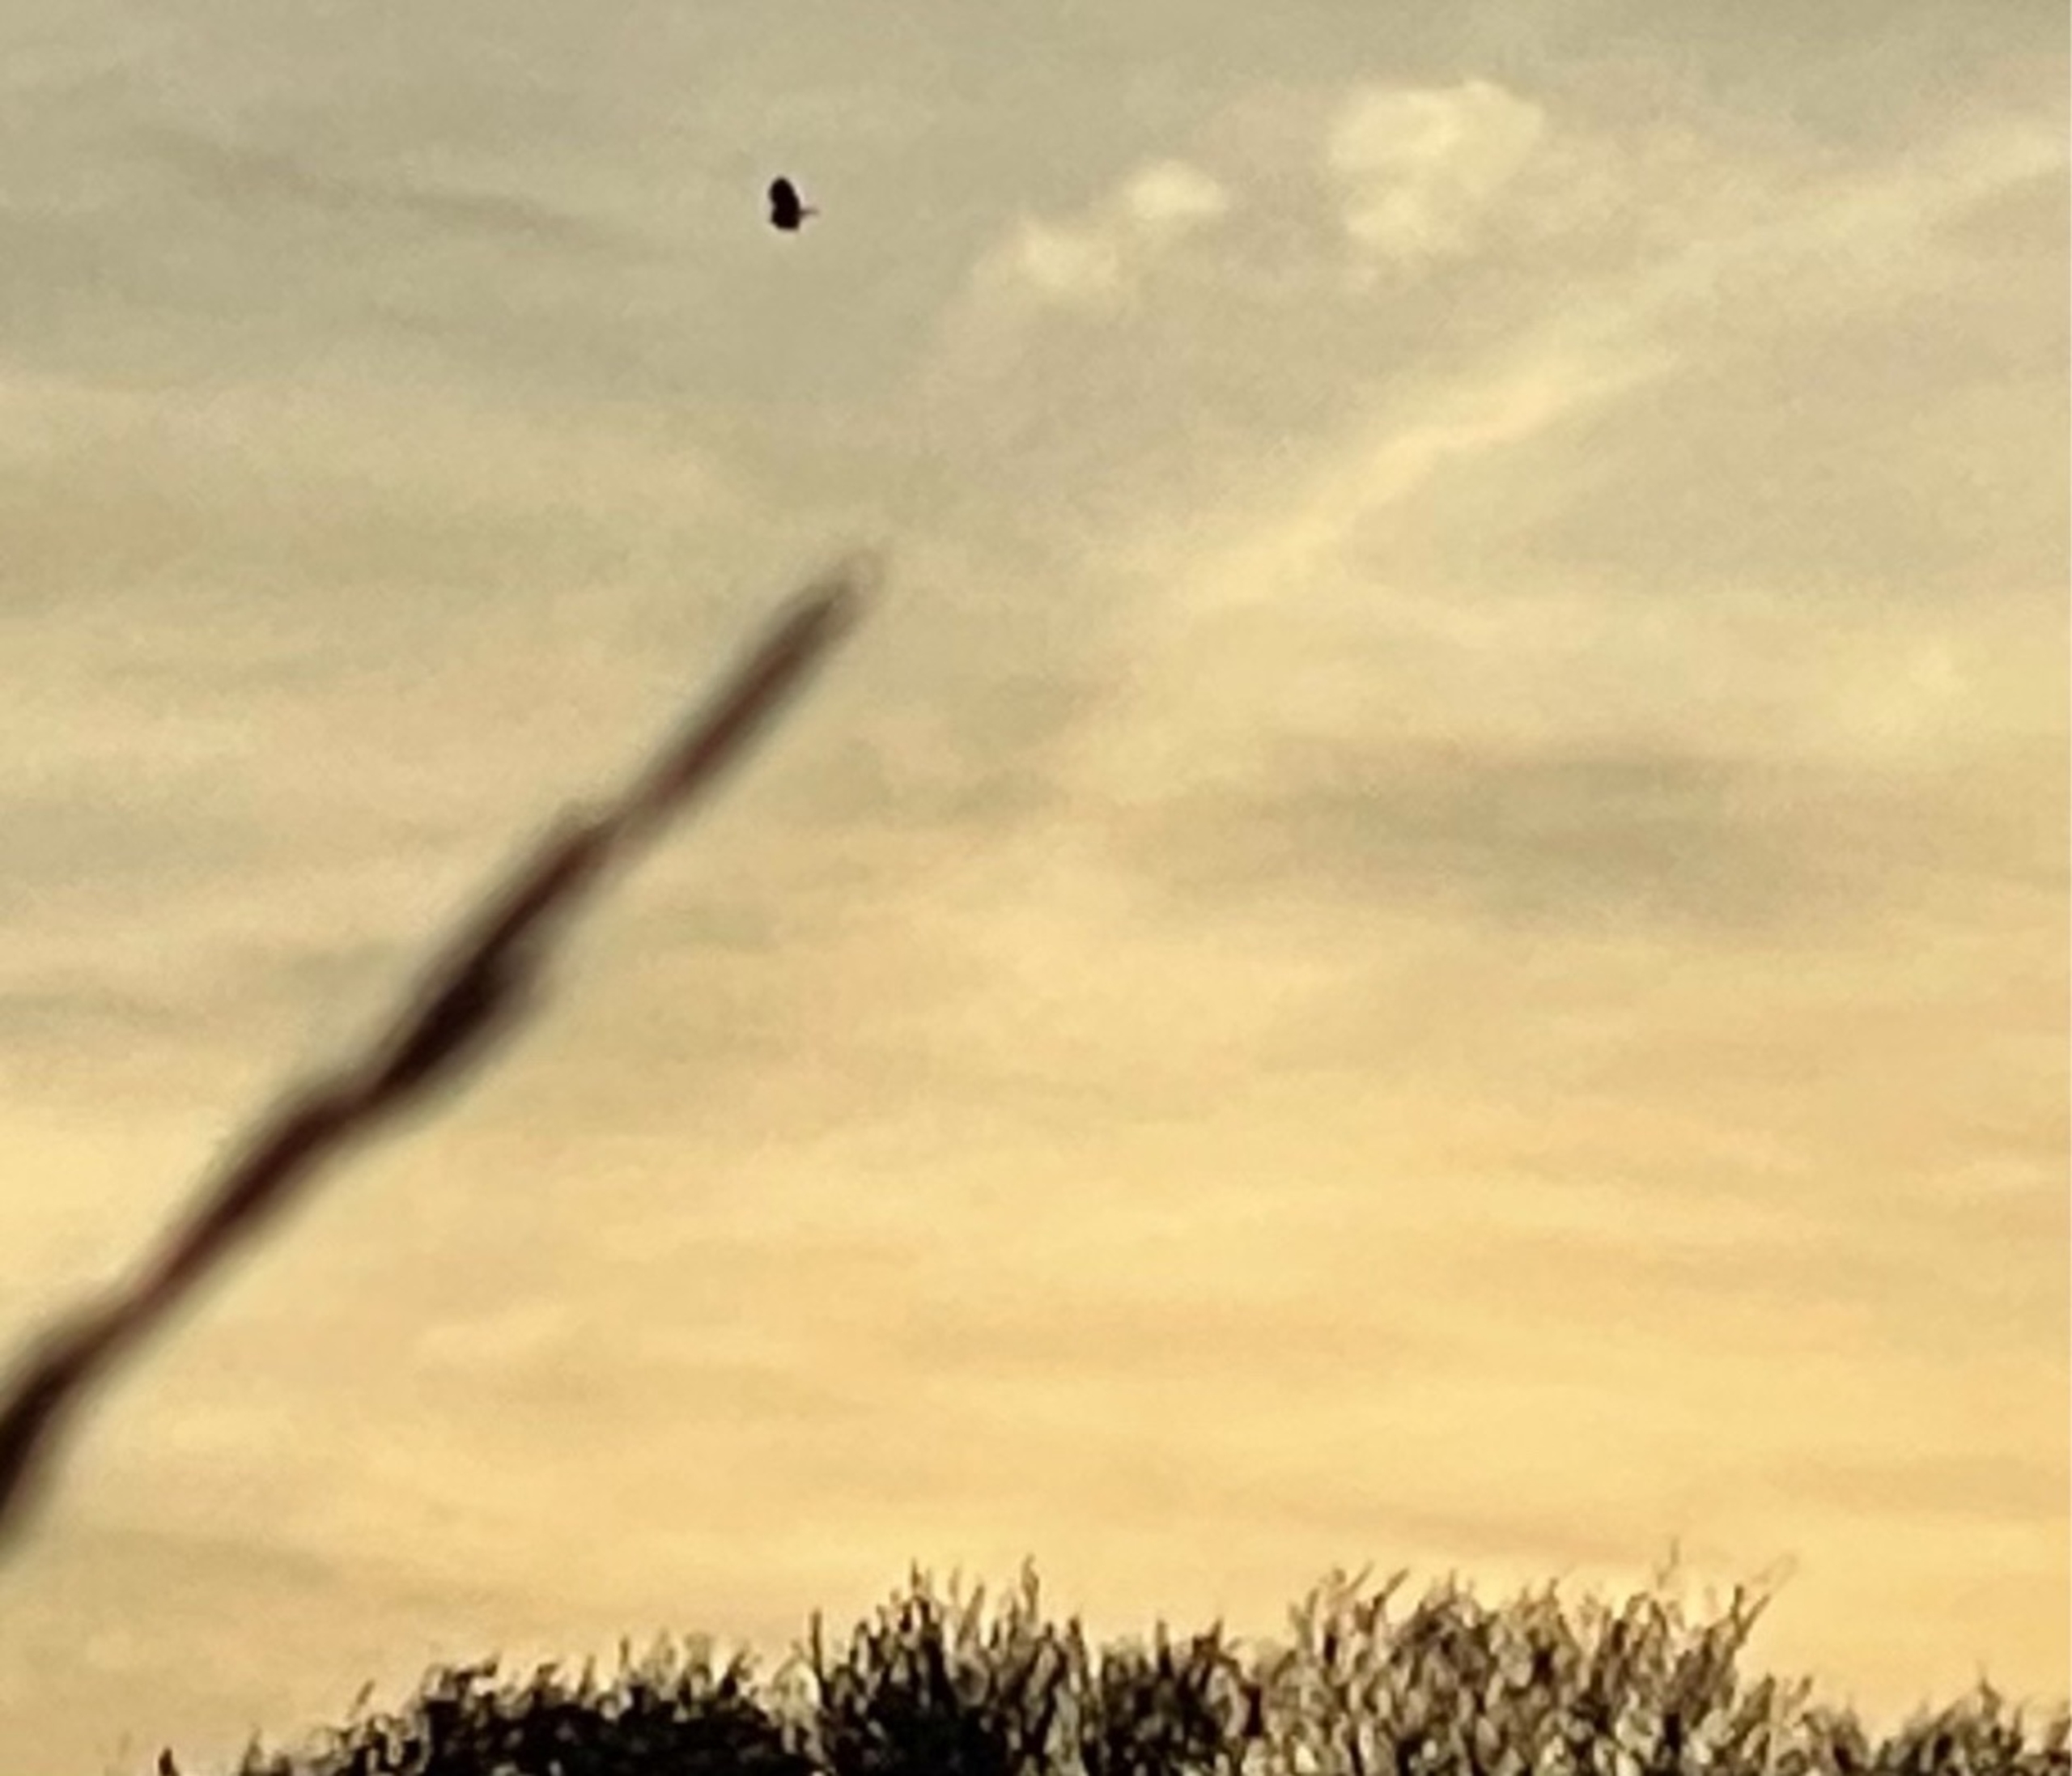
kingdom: Animalia
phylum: Chordata
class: Aves
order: Accipitriformes
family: Accipitridae
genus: Buteo
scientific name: Buteo buteo
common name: Musvåge
